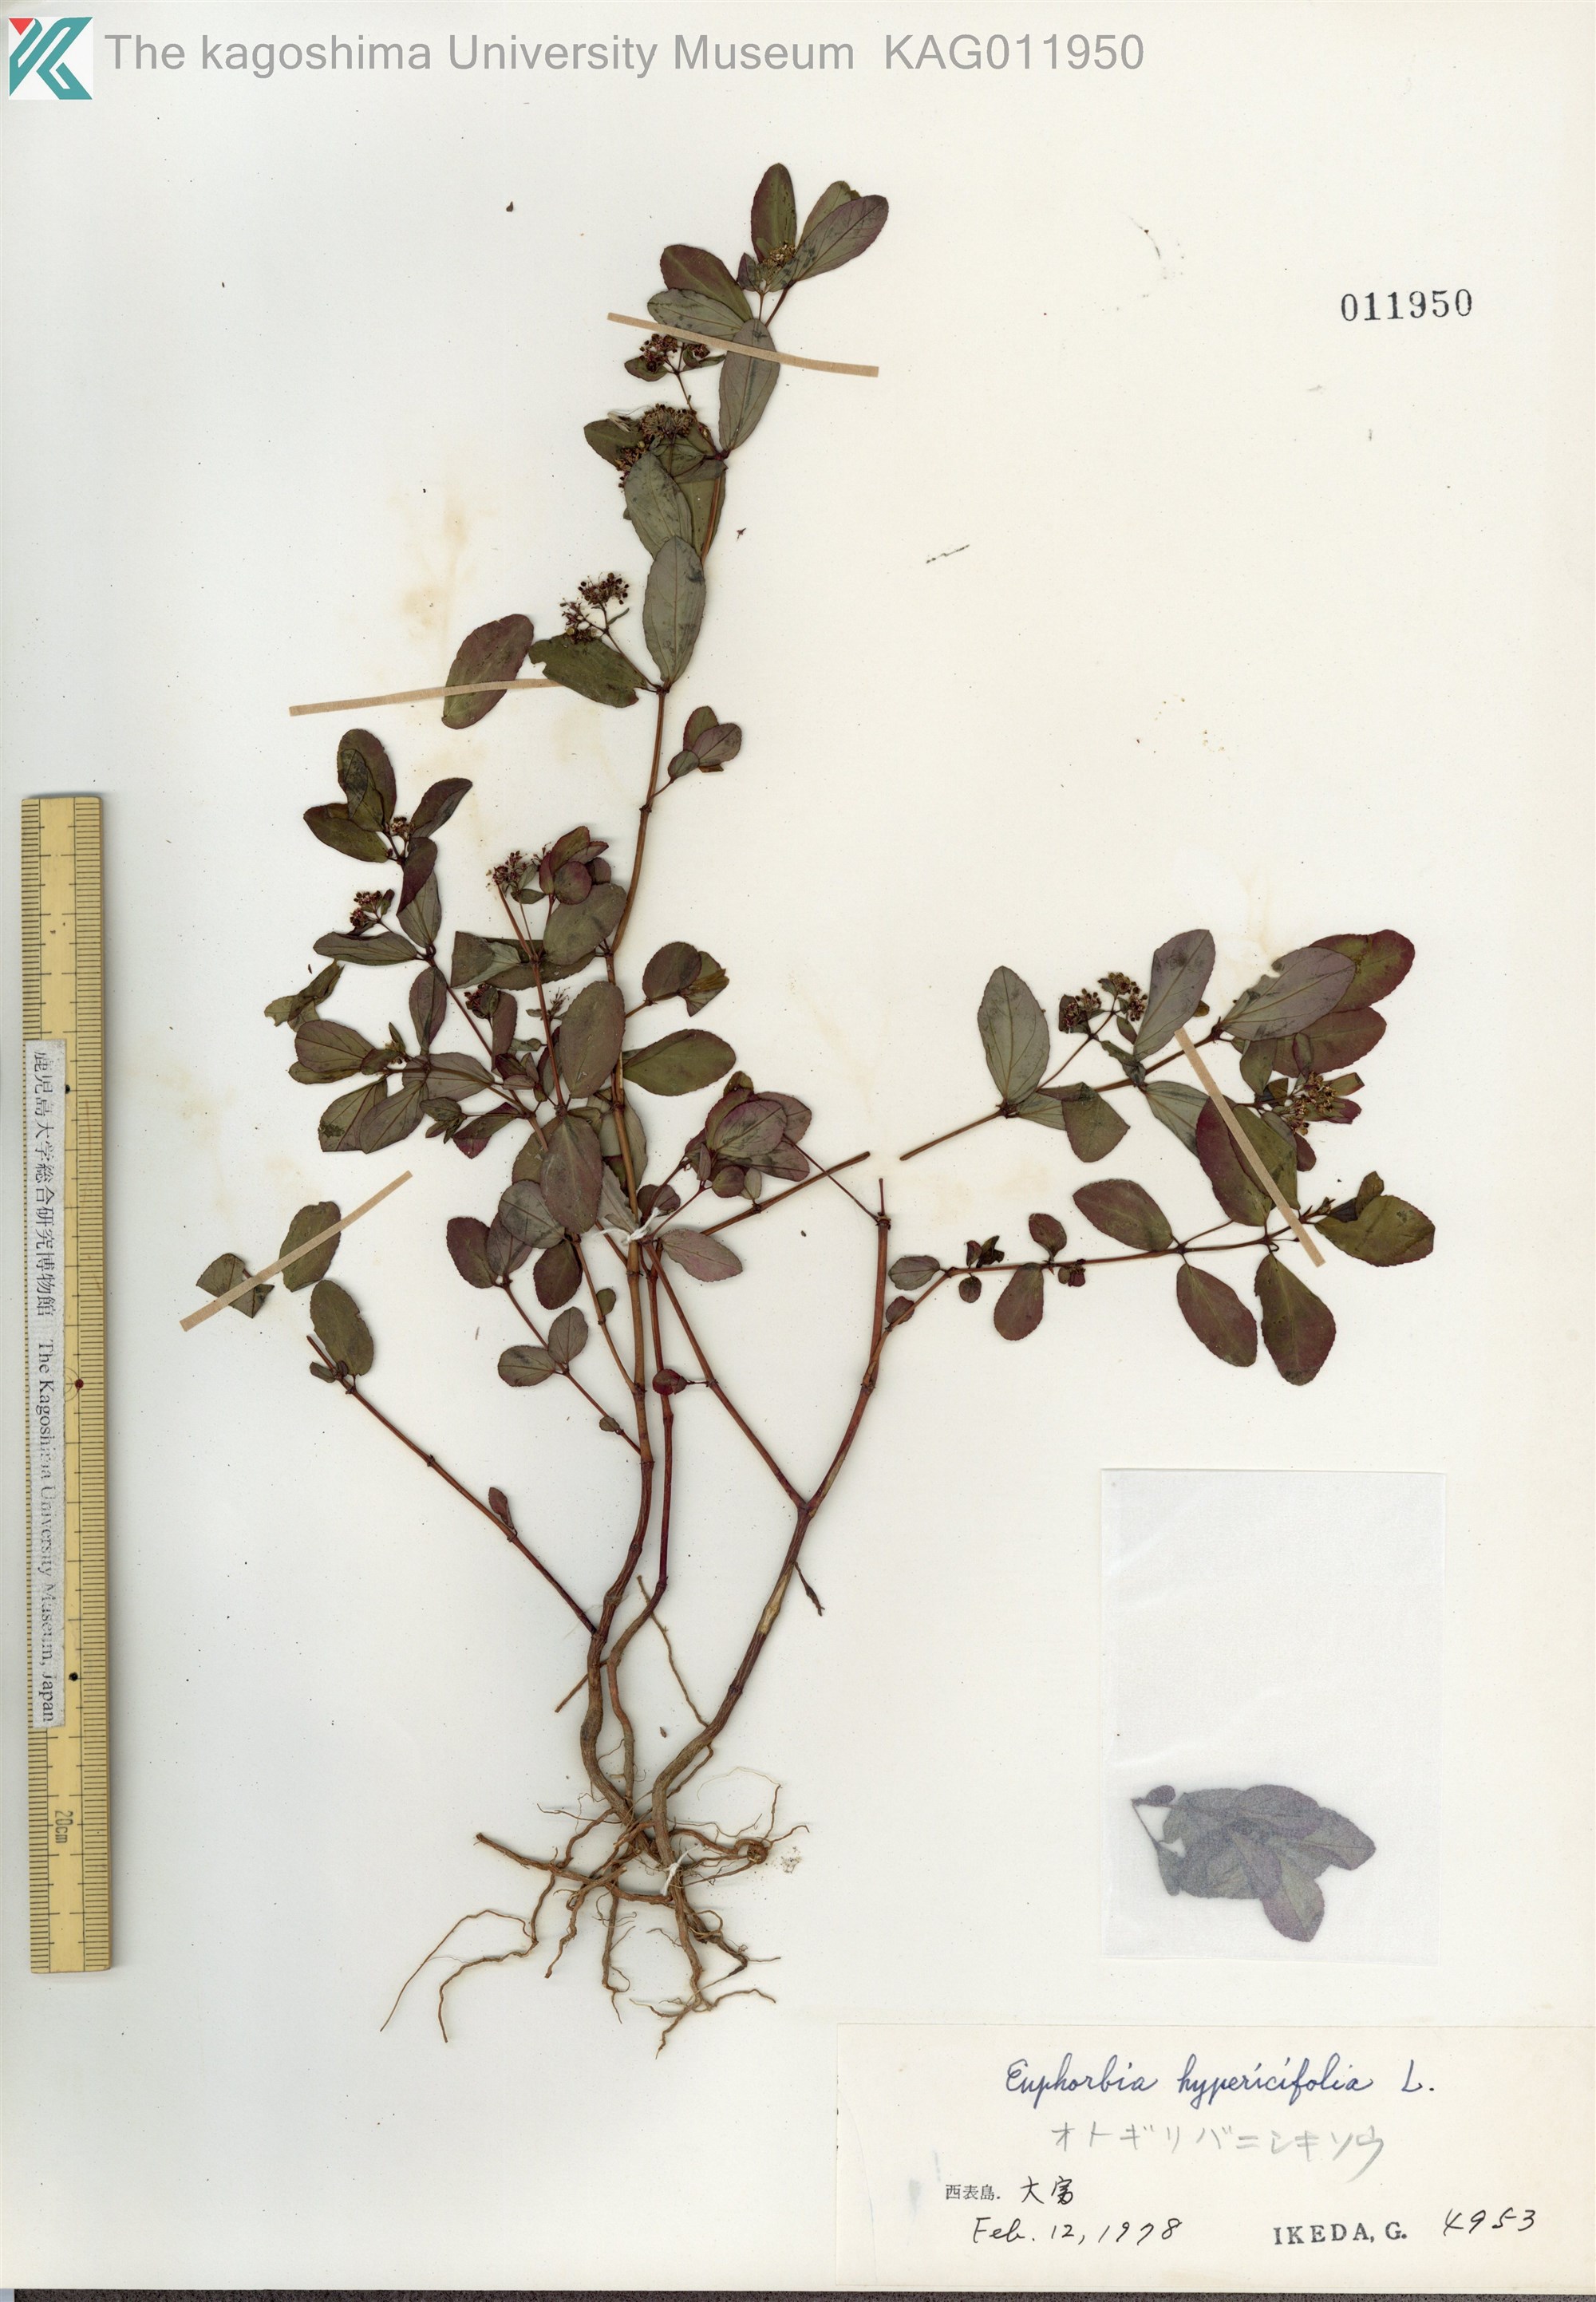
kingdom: Plantae
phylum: Tracheophyta
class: Magnoliopsida
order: Malpighiales
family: Euphorbiaceae
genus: Euphorbia
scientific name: Euphorbia hypericifolia
